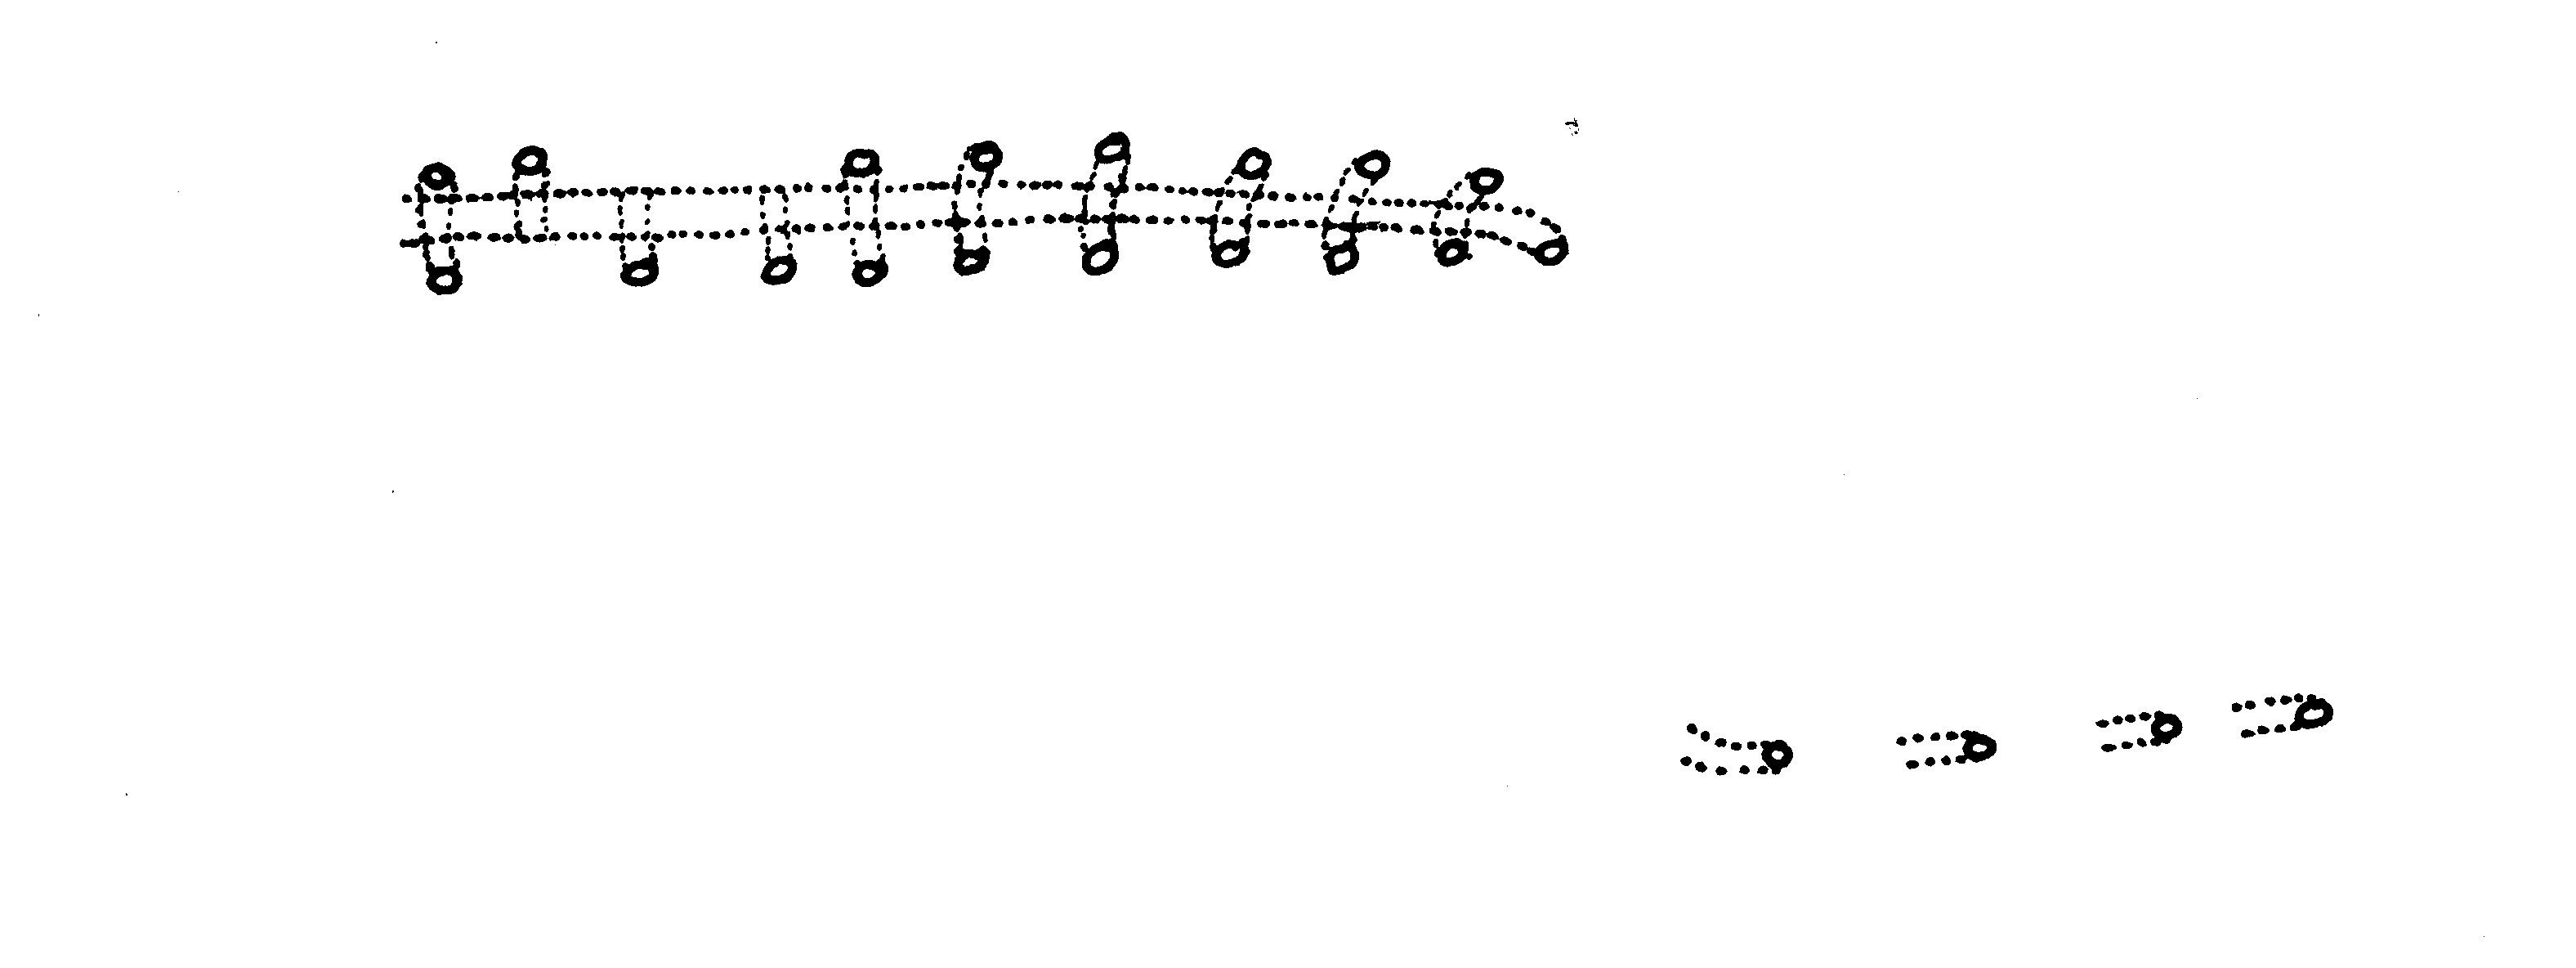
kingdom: Animalia
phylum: Chordata
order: Perciformes
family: Clinidae
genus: Xenopoclinus
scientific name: Xenopoclinus kochi
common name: Platanna klipfish
